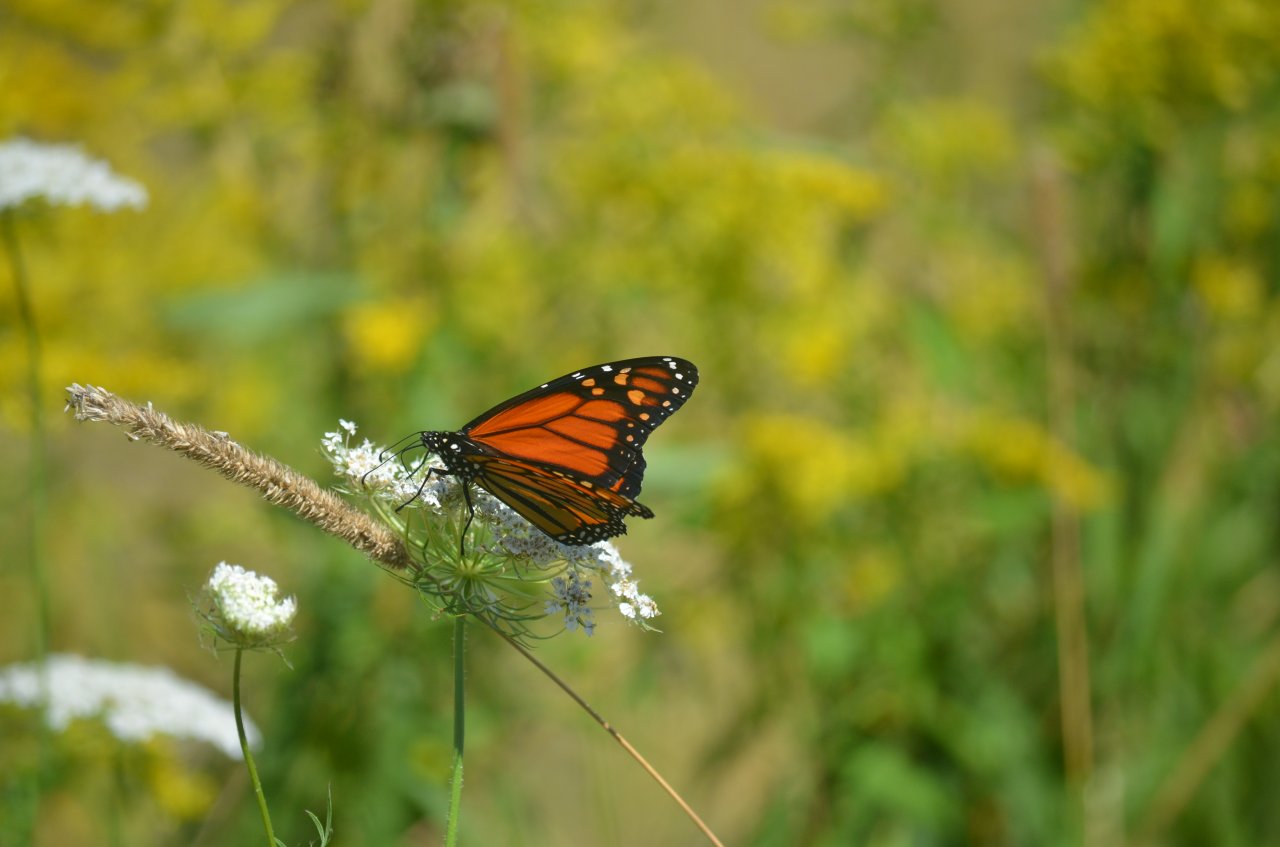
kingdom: Animalia
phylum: Arthropoda
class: Insecta
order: Lepidoptera
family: Nymphalidae
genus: Danaus
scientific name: Danaus plexippus
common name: Monarch
